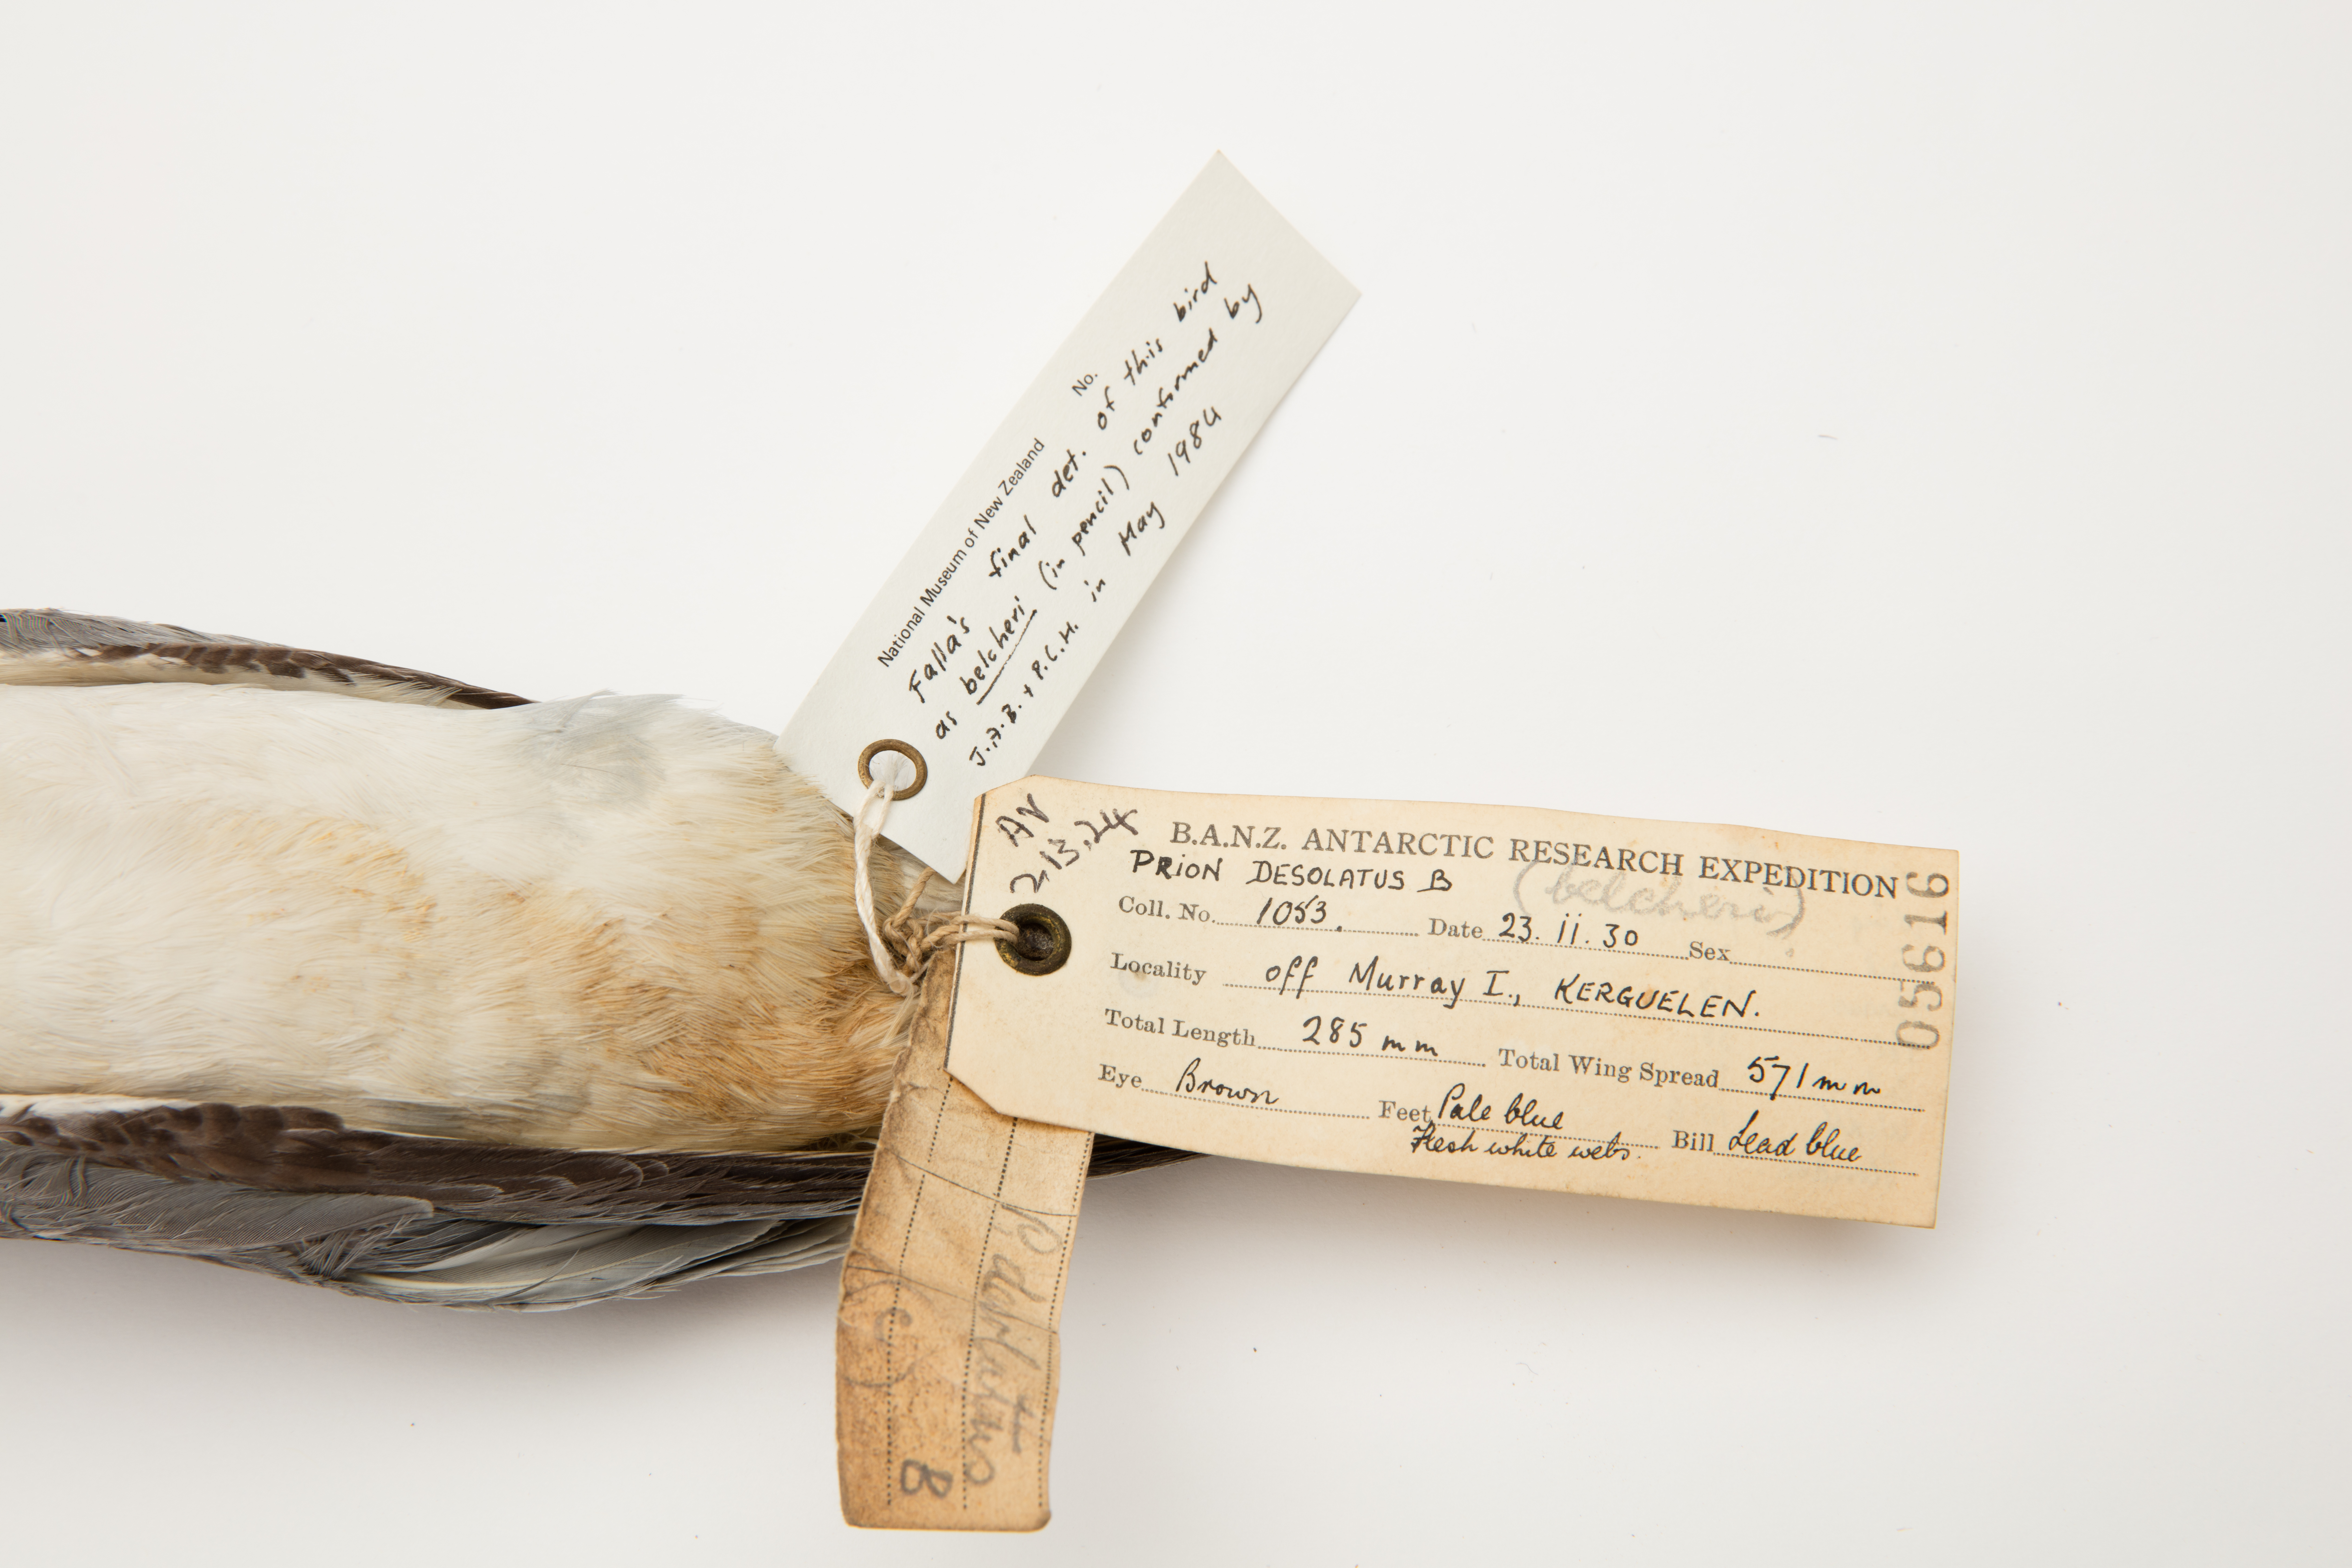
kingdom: Animalia
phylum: Chordata
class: Aves
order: Procellariiformes
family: Procellariidae
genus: Pachyptila
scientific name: Pachyptila belcheri
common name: Slender-billed prion
